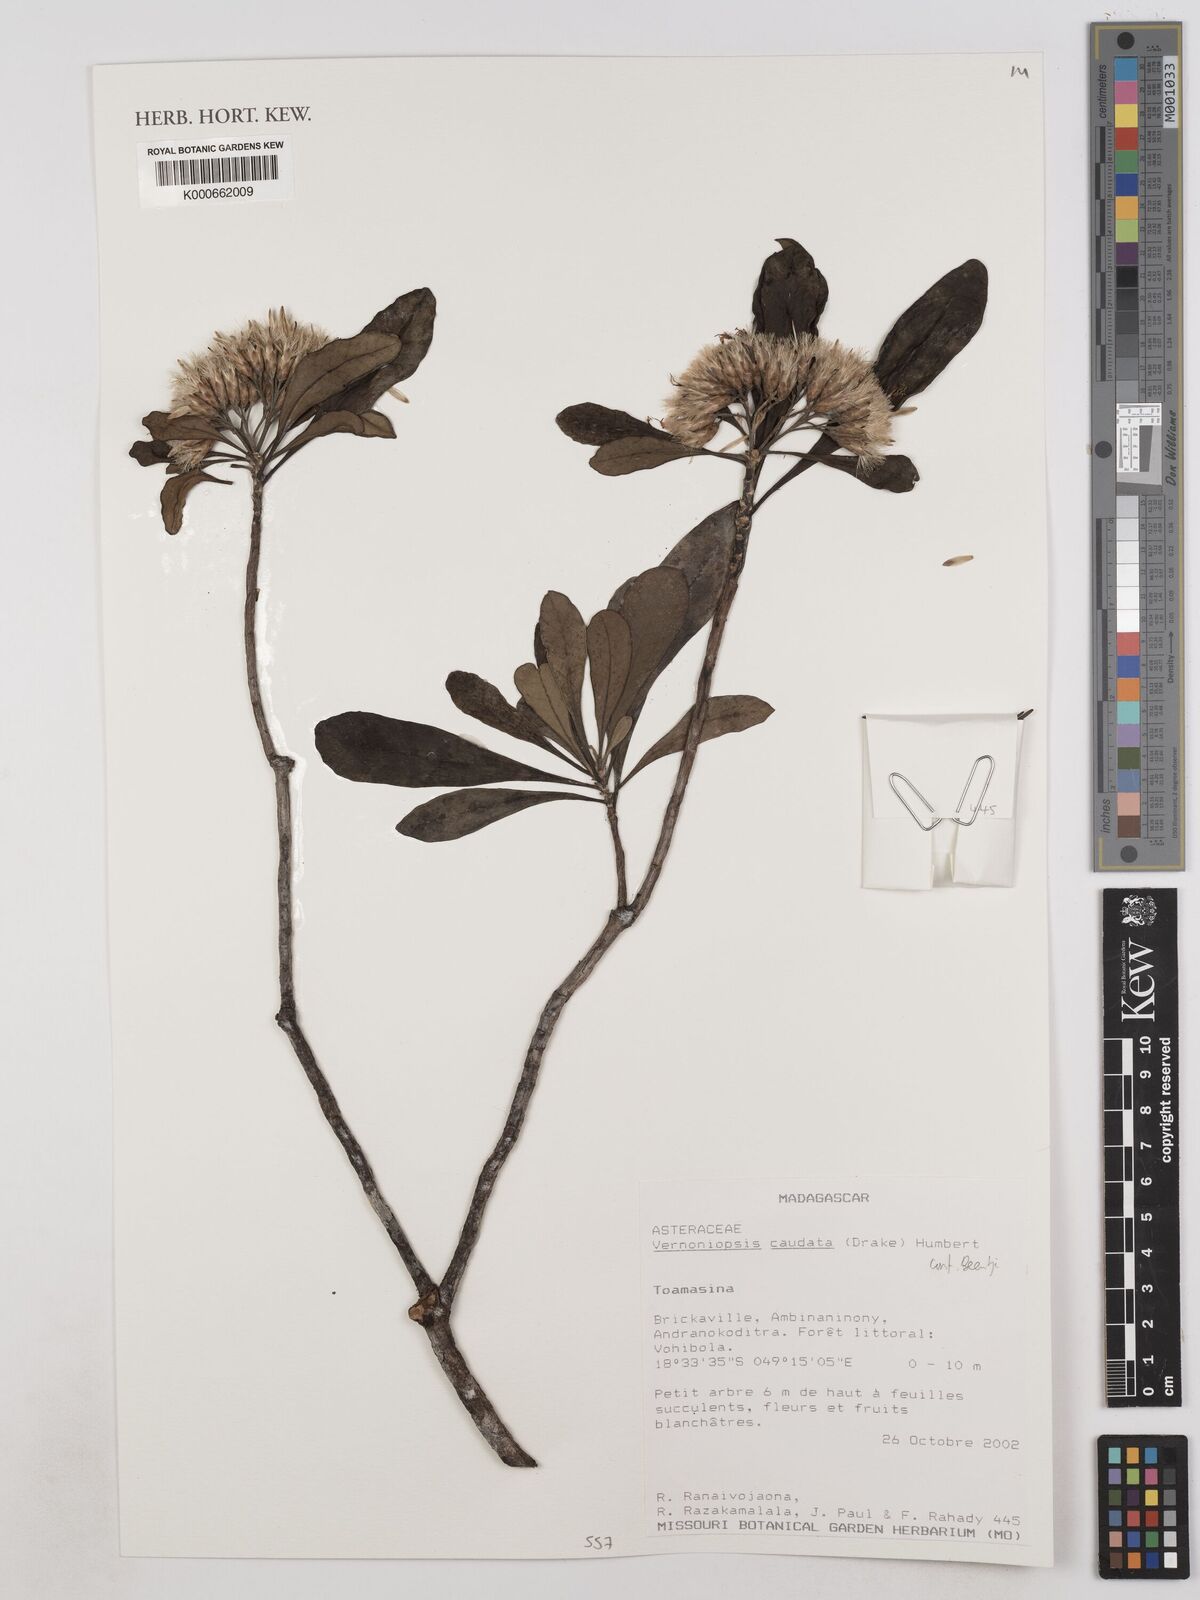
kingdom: Plantae
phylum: Tracheophyta
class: Magnoliopsida
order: Asterales
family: Asteraceae
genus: Vernoniopsis
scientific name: Vernoniopsis caudata
